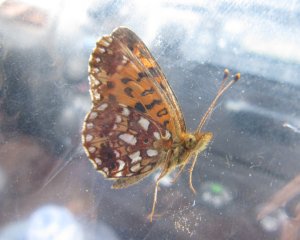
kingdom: Animalia
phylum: Arthropoda
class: Insecta
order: Lepidoptera
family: Nymphalidae
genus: Boloria
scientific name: Boloria selene
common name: Silver-bordered Fritillary
